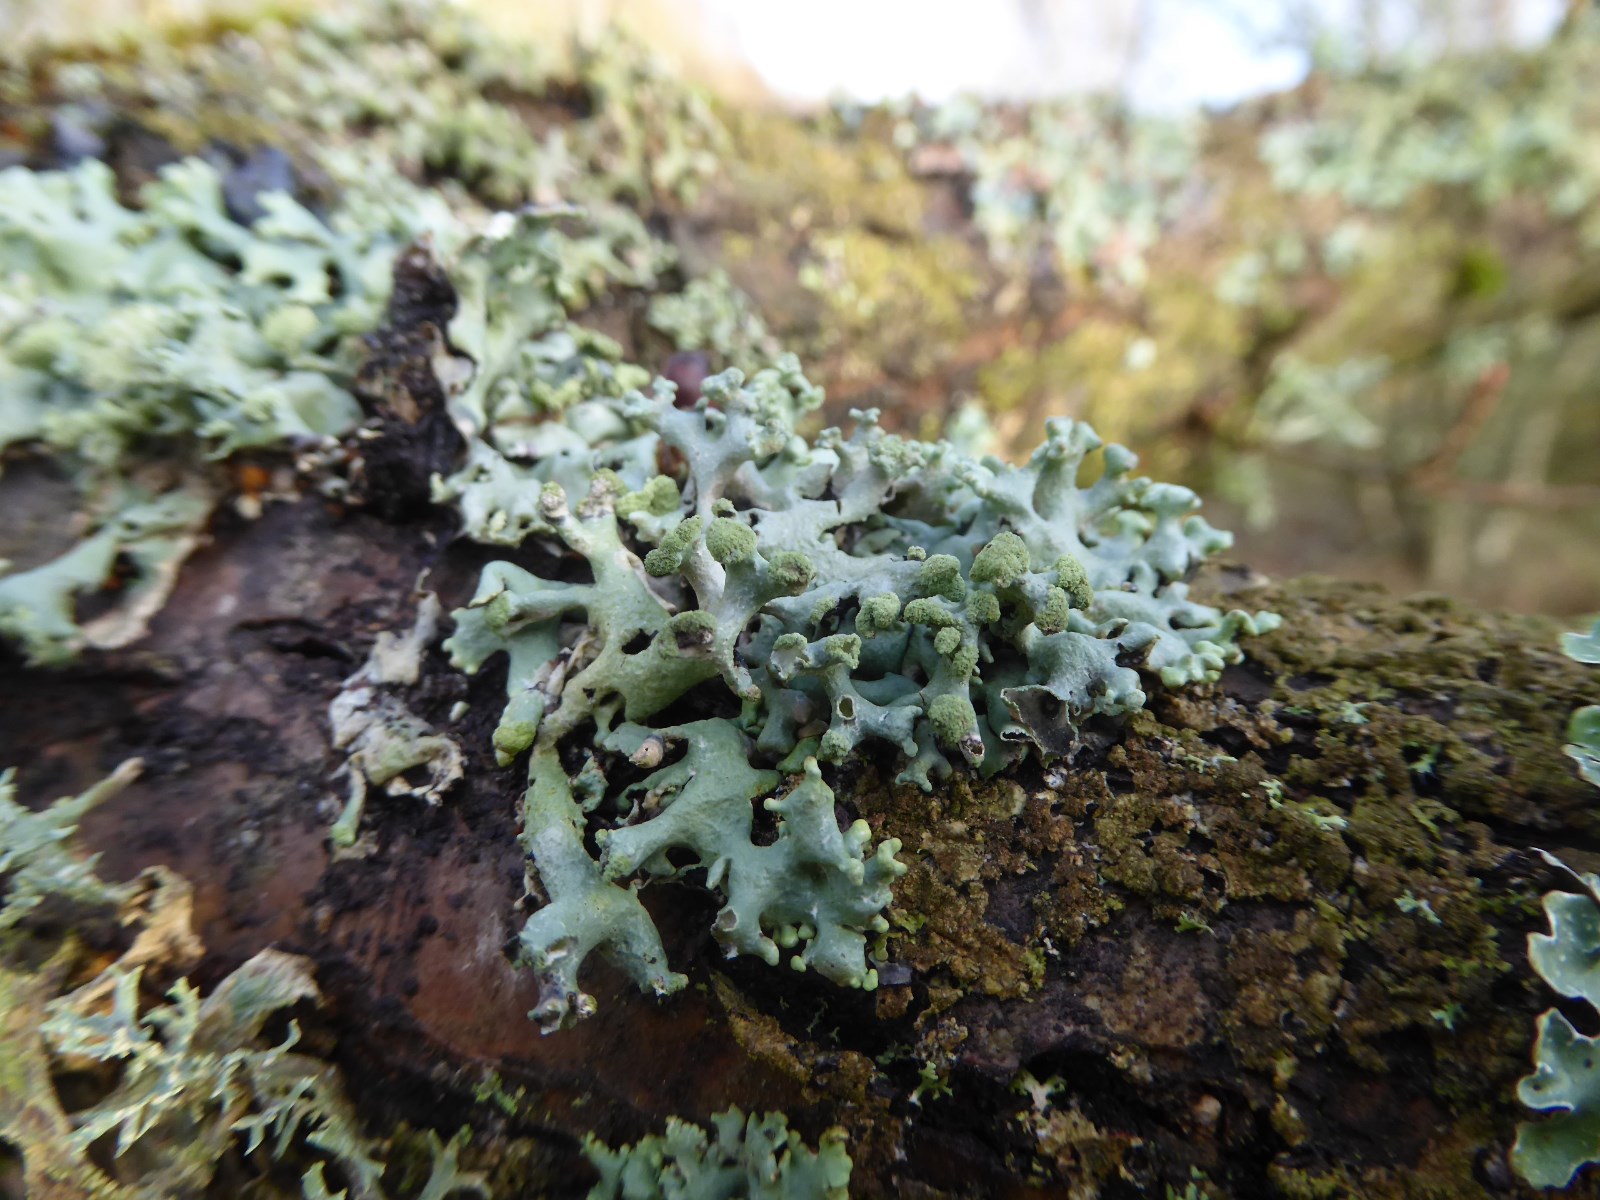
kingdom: Fungi
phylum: Ascomycota
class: Lecanoromycetes
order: Lecanorales
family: Parmeliaceae
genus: Hypogymnia
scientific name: Hypogymnia tubulosa
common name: finger-kvistlav
